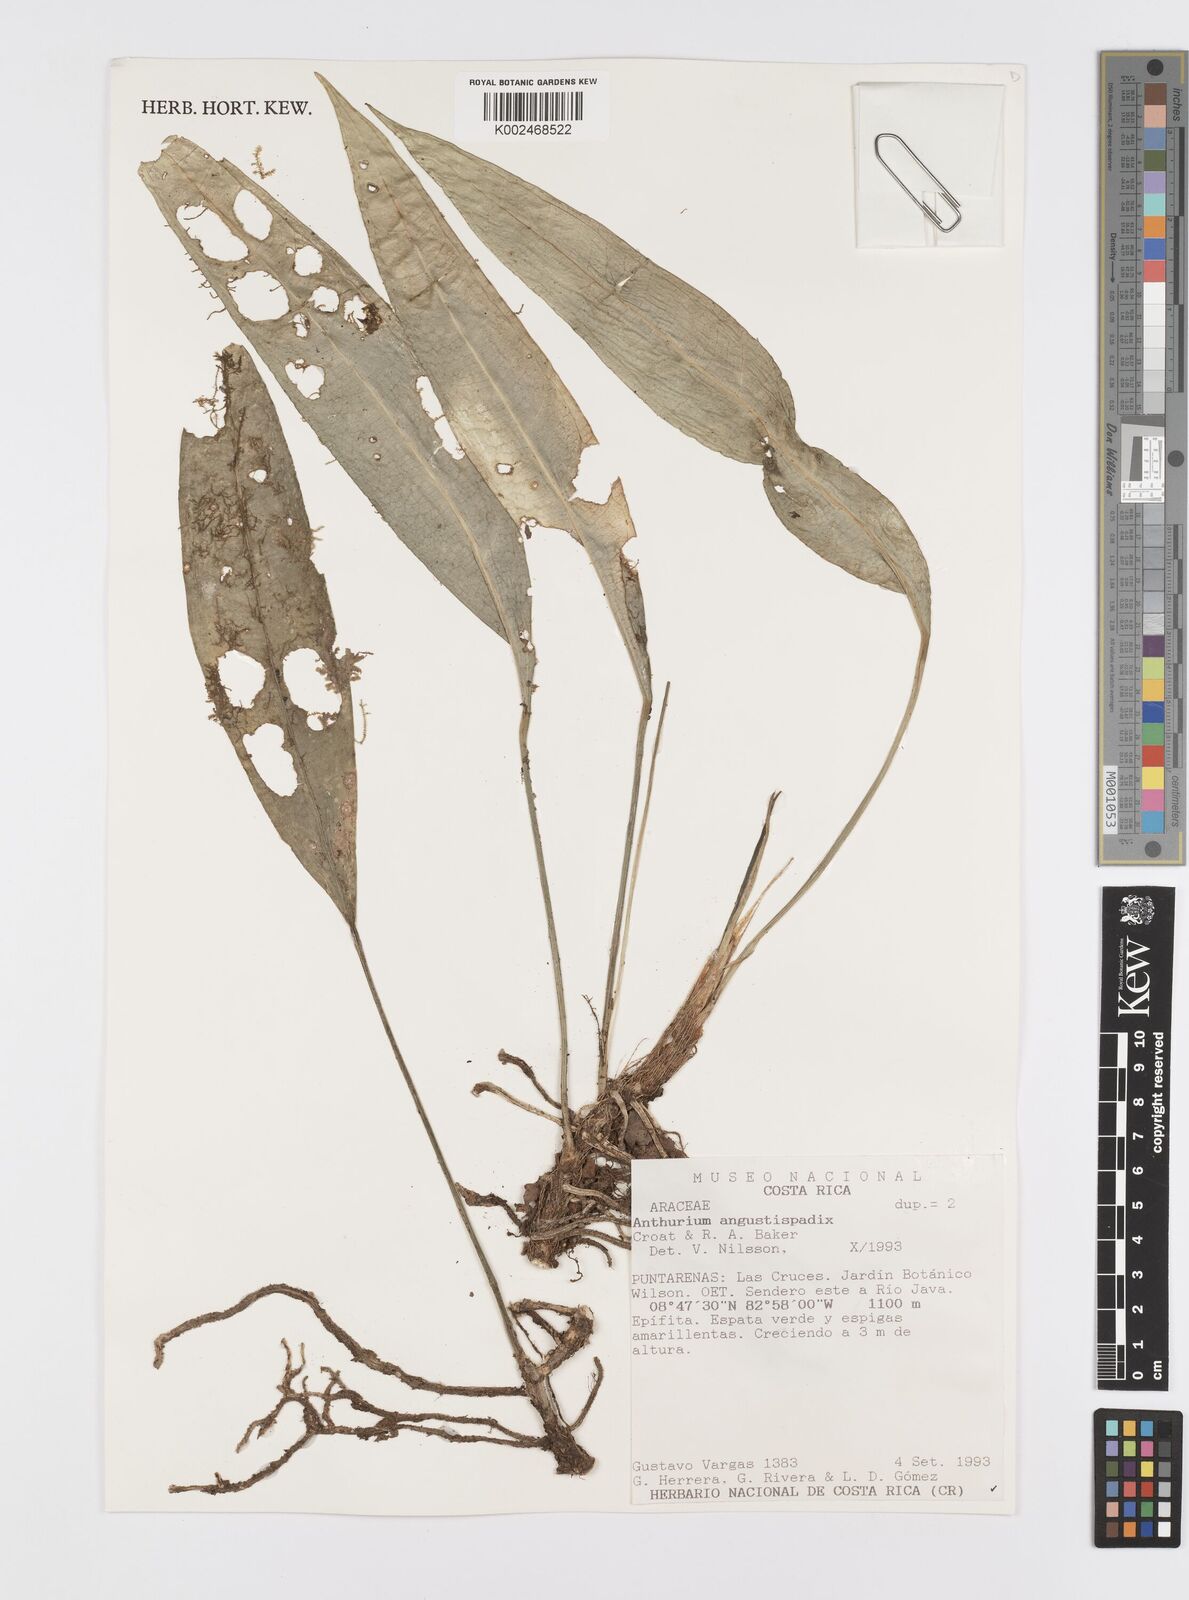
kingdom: Plantae
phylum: Tracheophyta
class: Liliopsida
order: Alismatales
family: Araceae
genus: Anthurium
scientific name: Anthurium angustispadix
